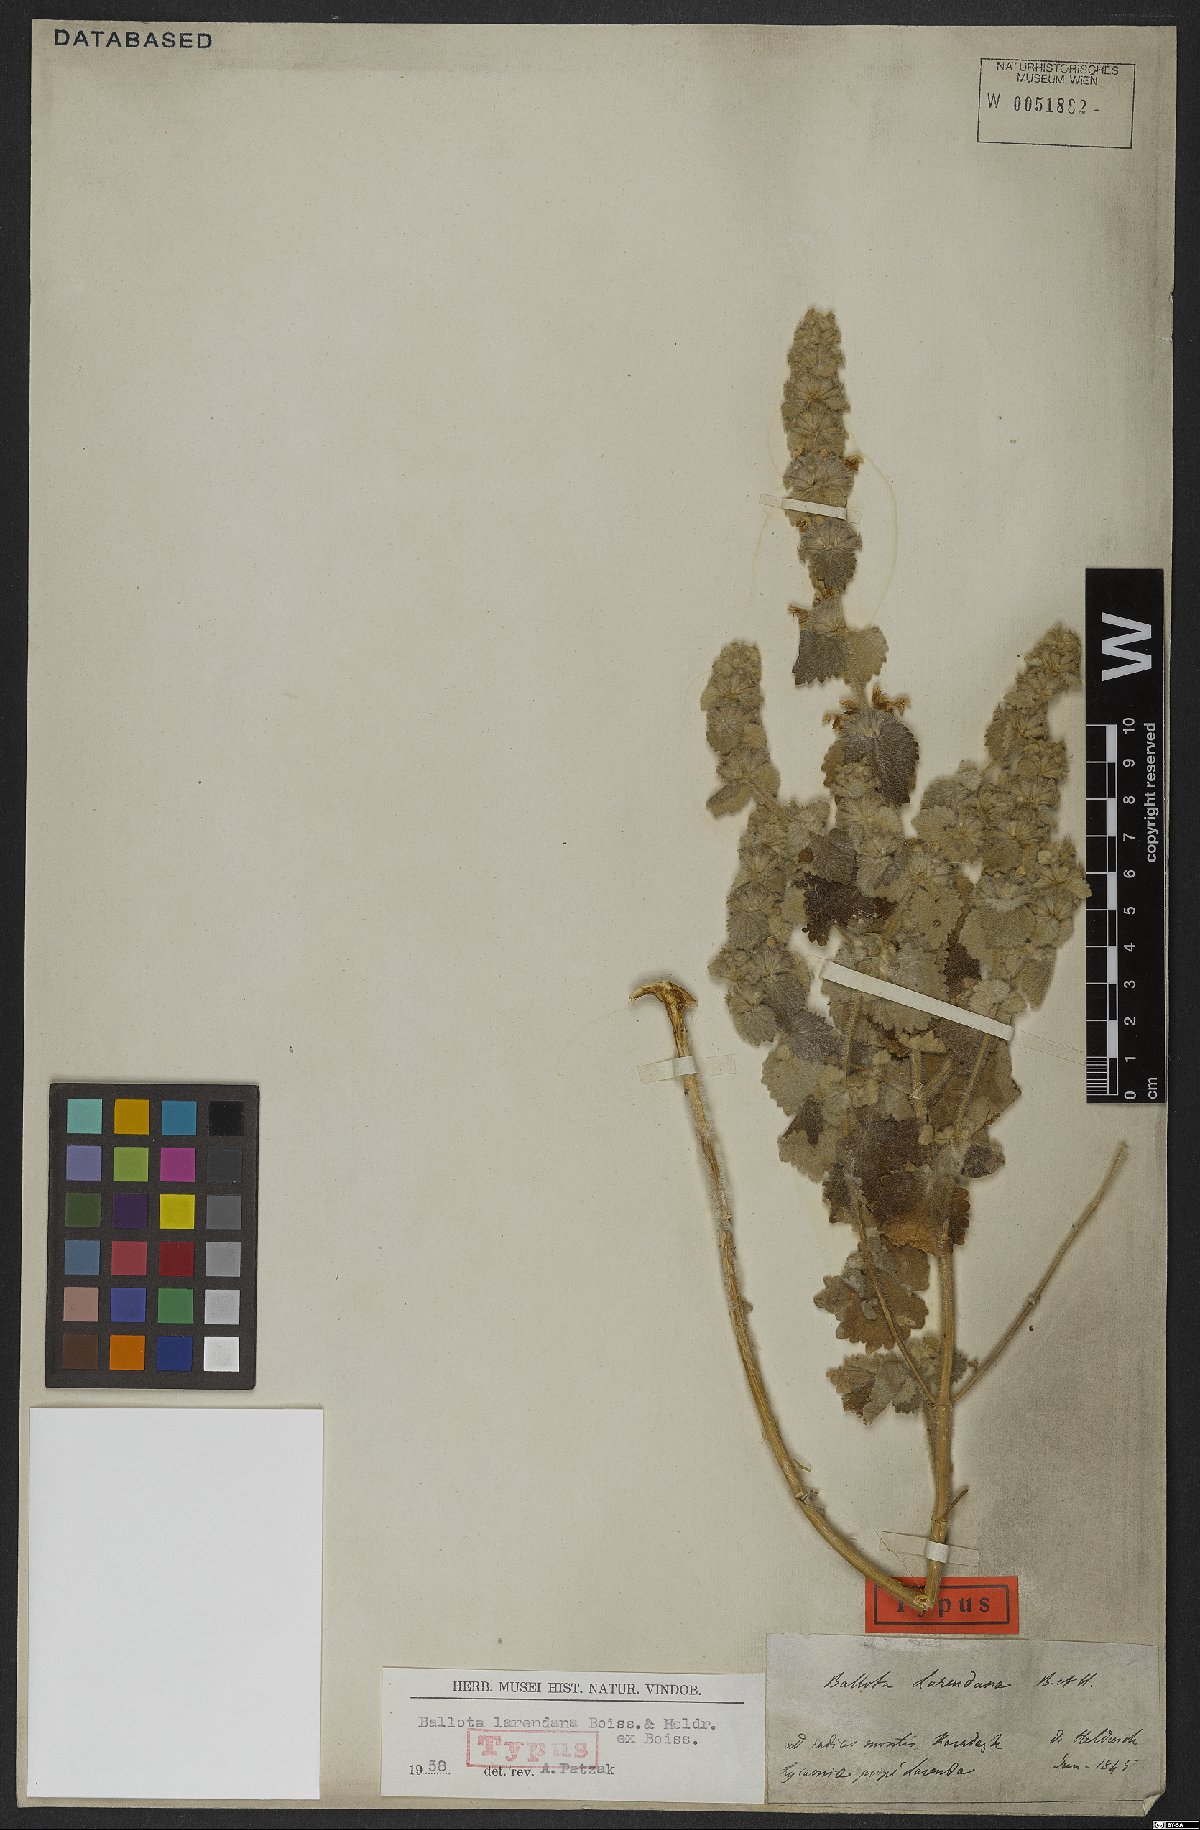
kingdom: Plantae
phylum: Tracheophyta
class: Magnoliopsida
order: Lamiales
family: Lamiaceae
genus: Ballota
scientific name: Ballota larendana
